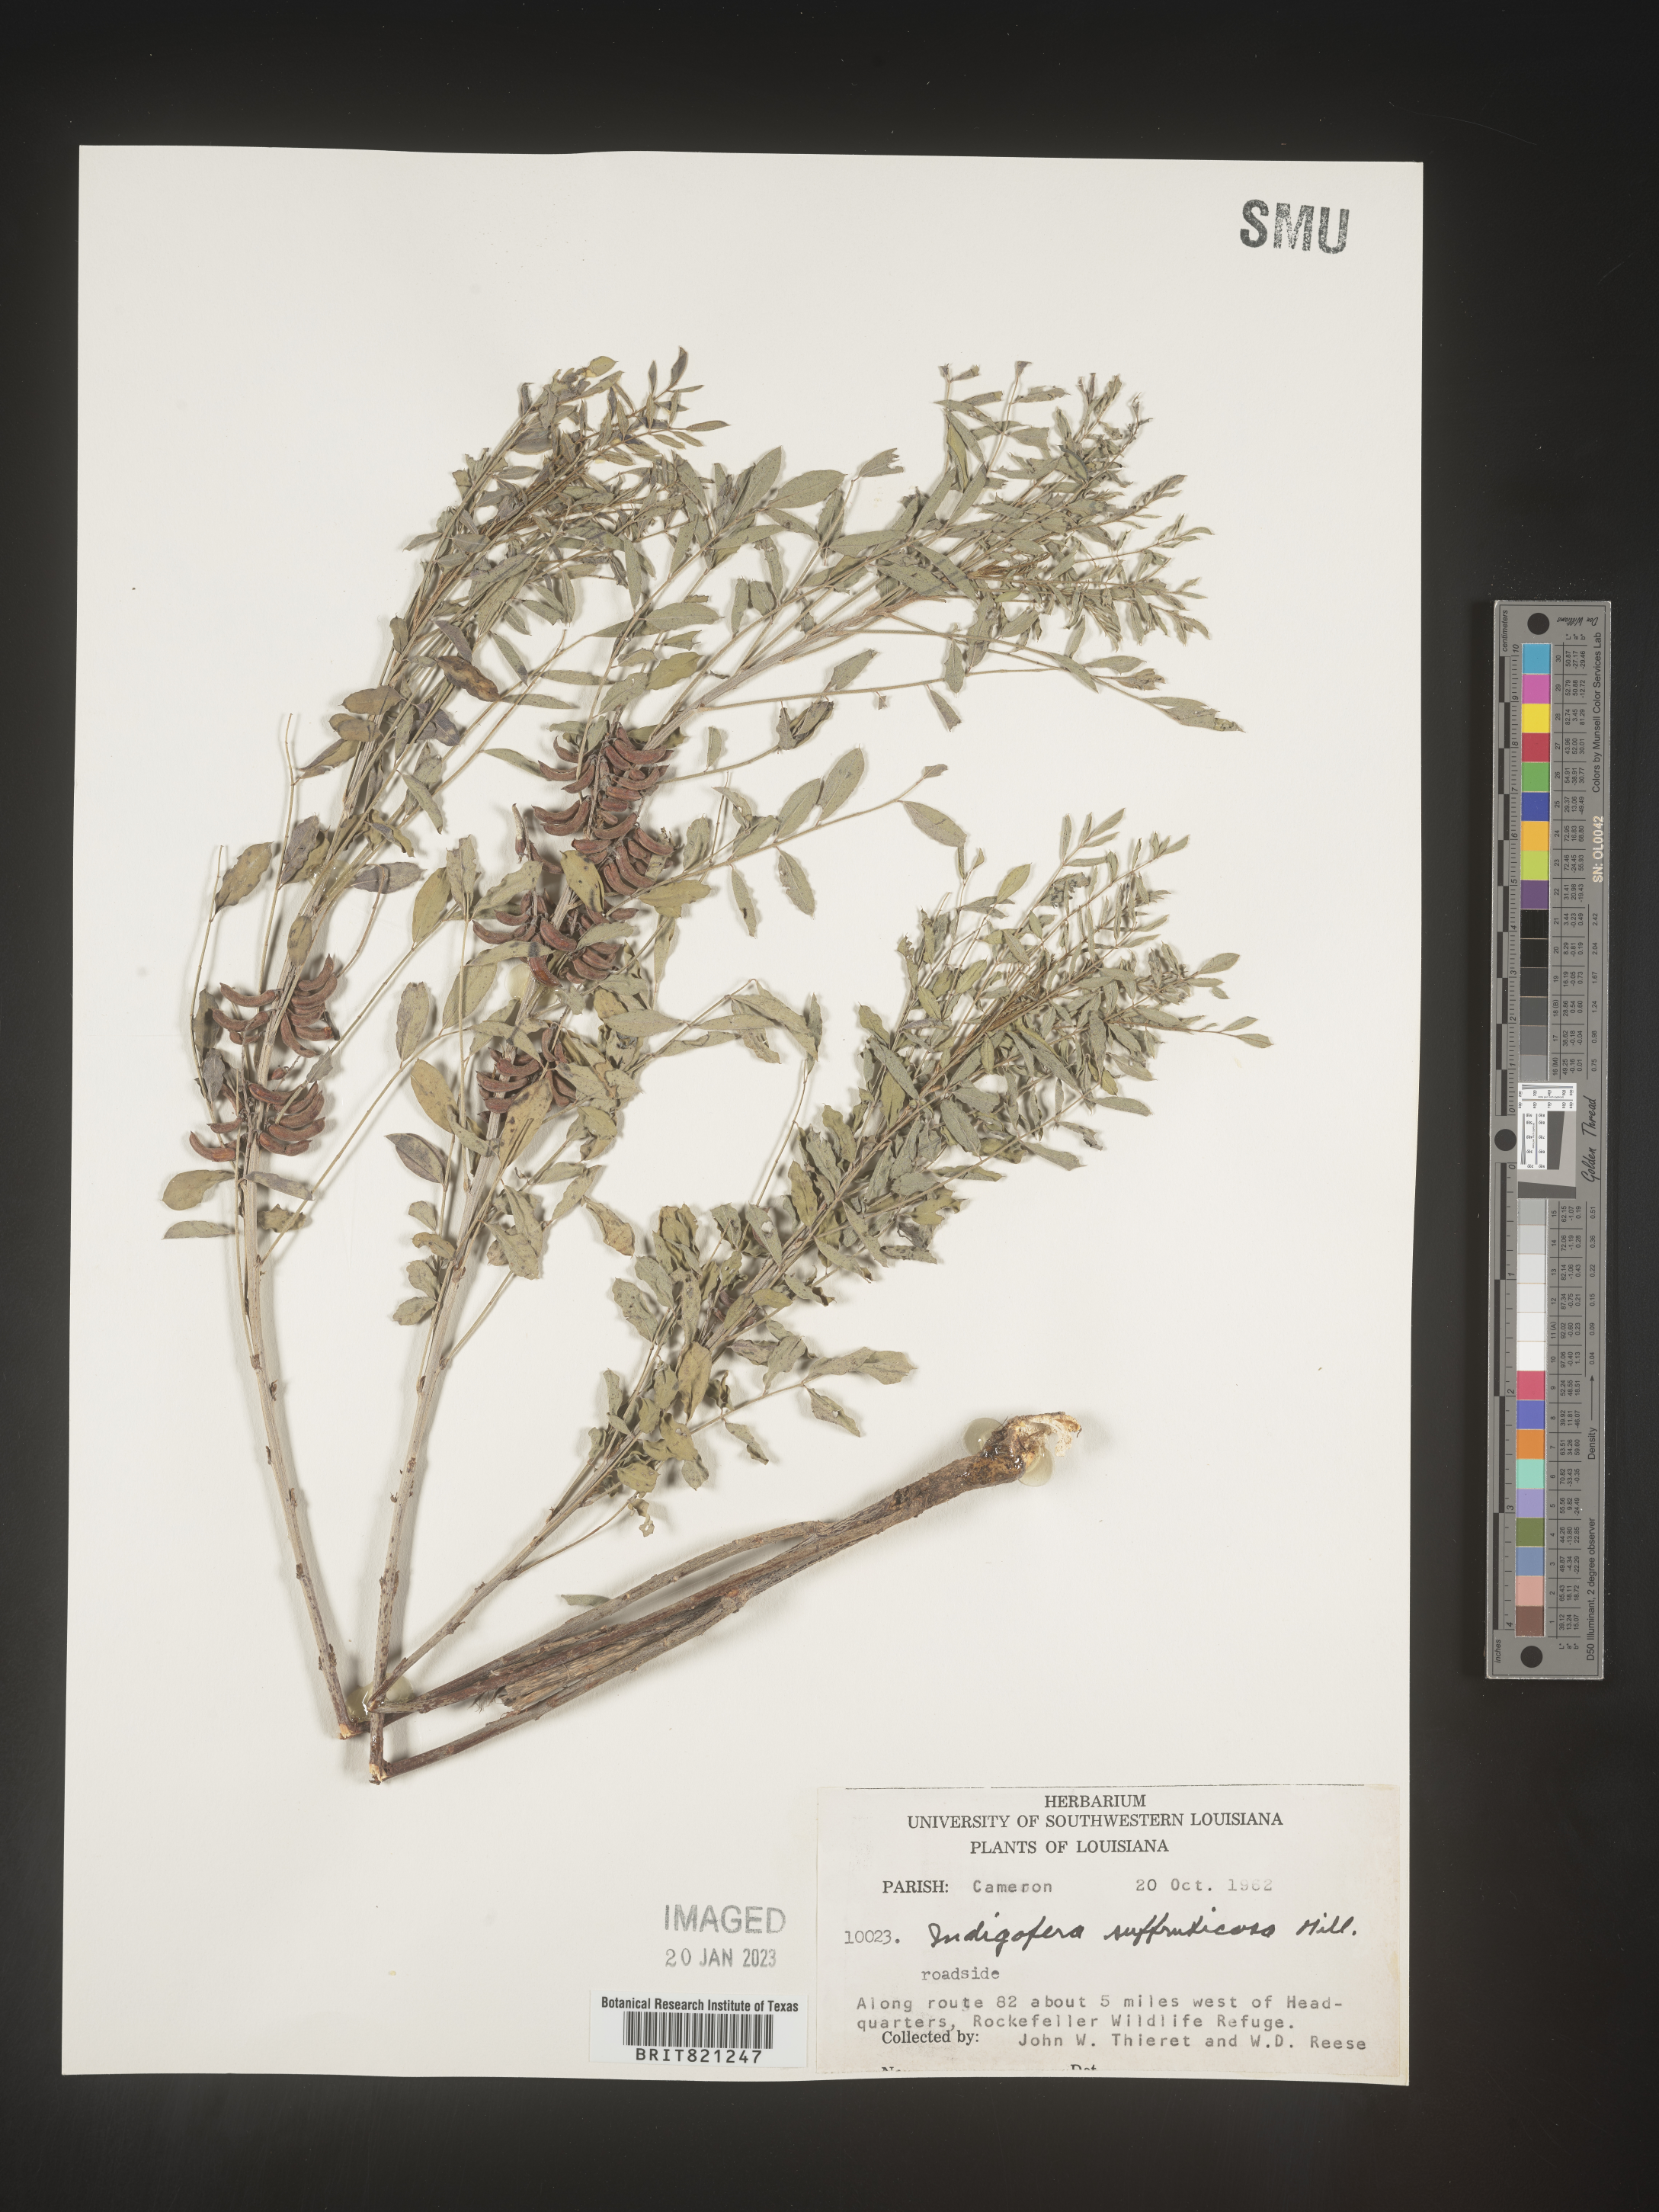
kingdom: Plantae
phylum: Tracheophyta
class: Magnoliopsida
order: Fabales
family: Fabaceae
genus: Indigofera
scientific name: Indigofera
